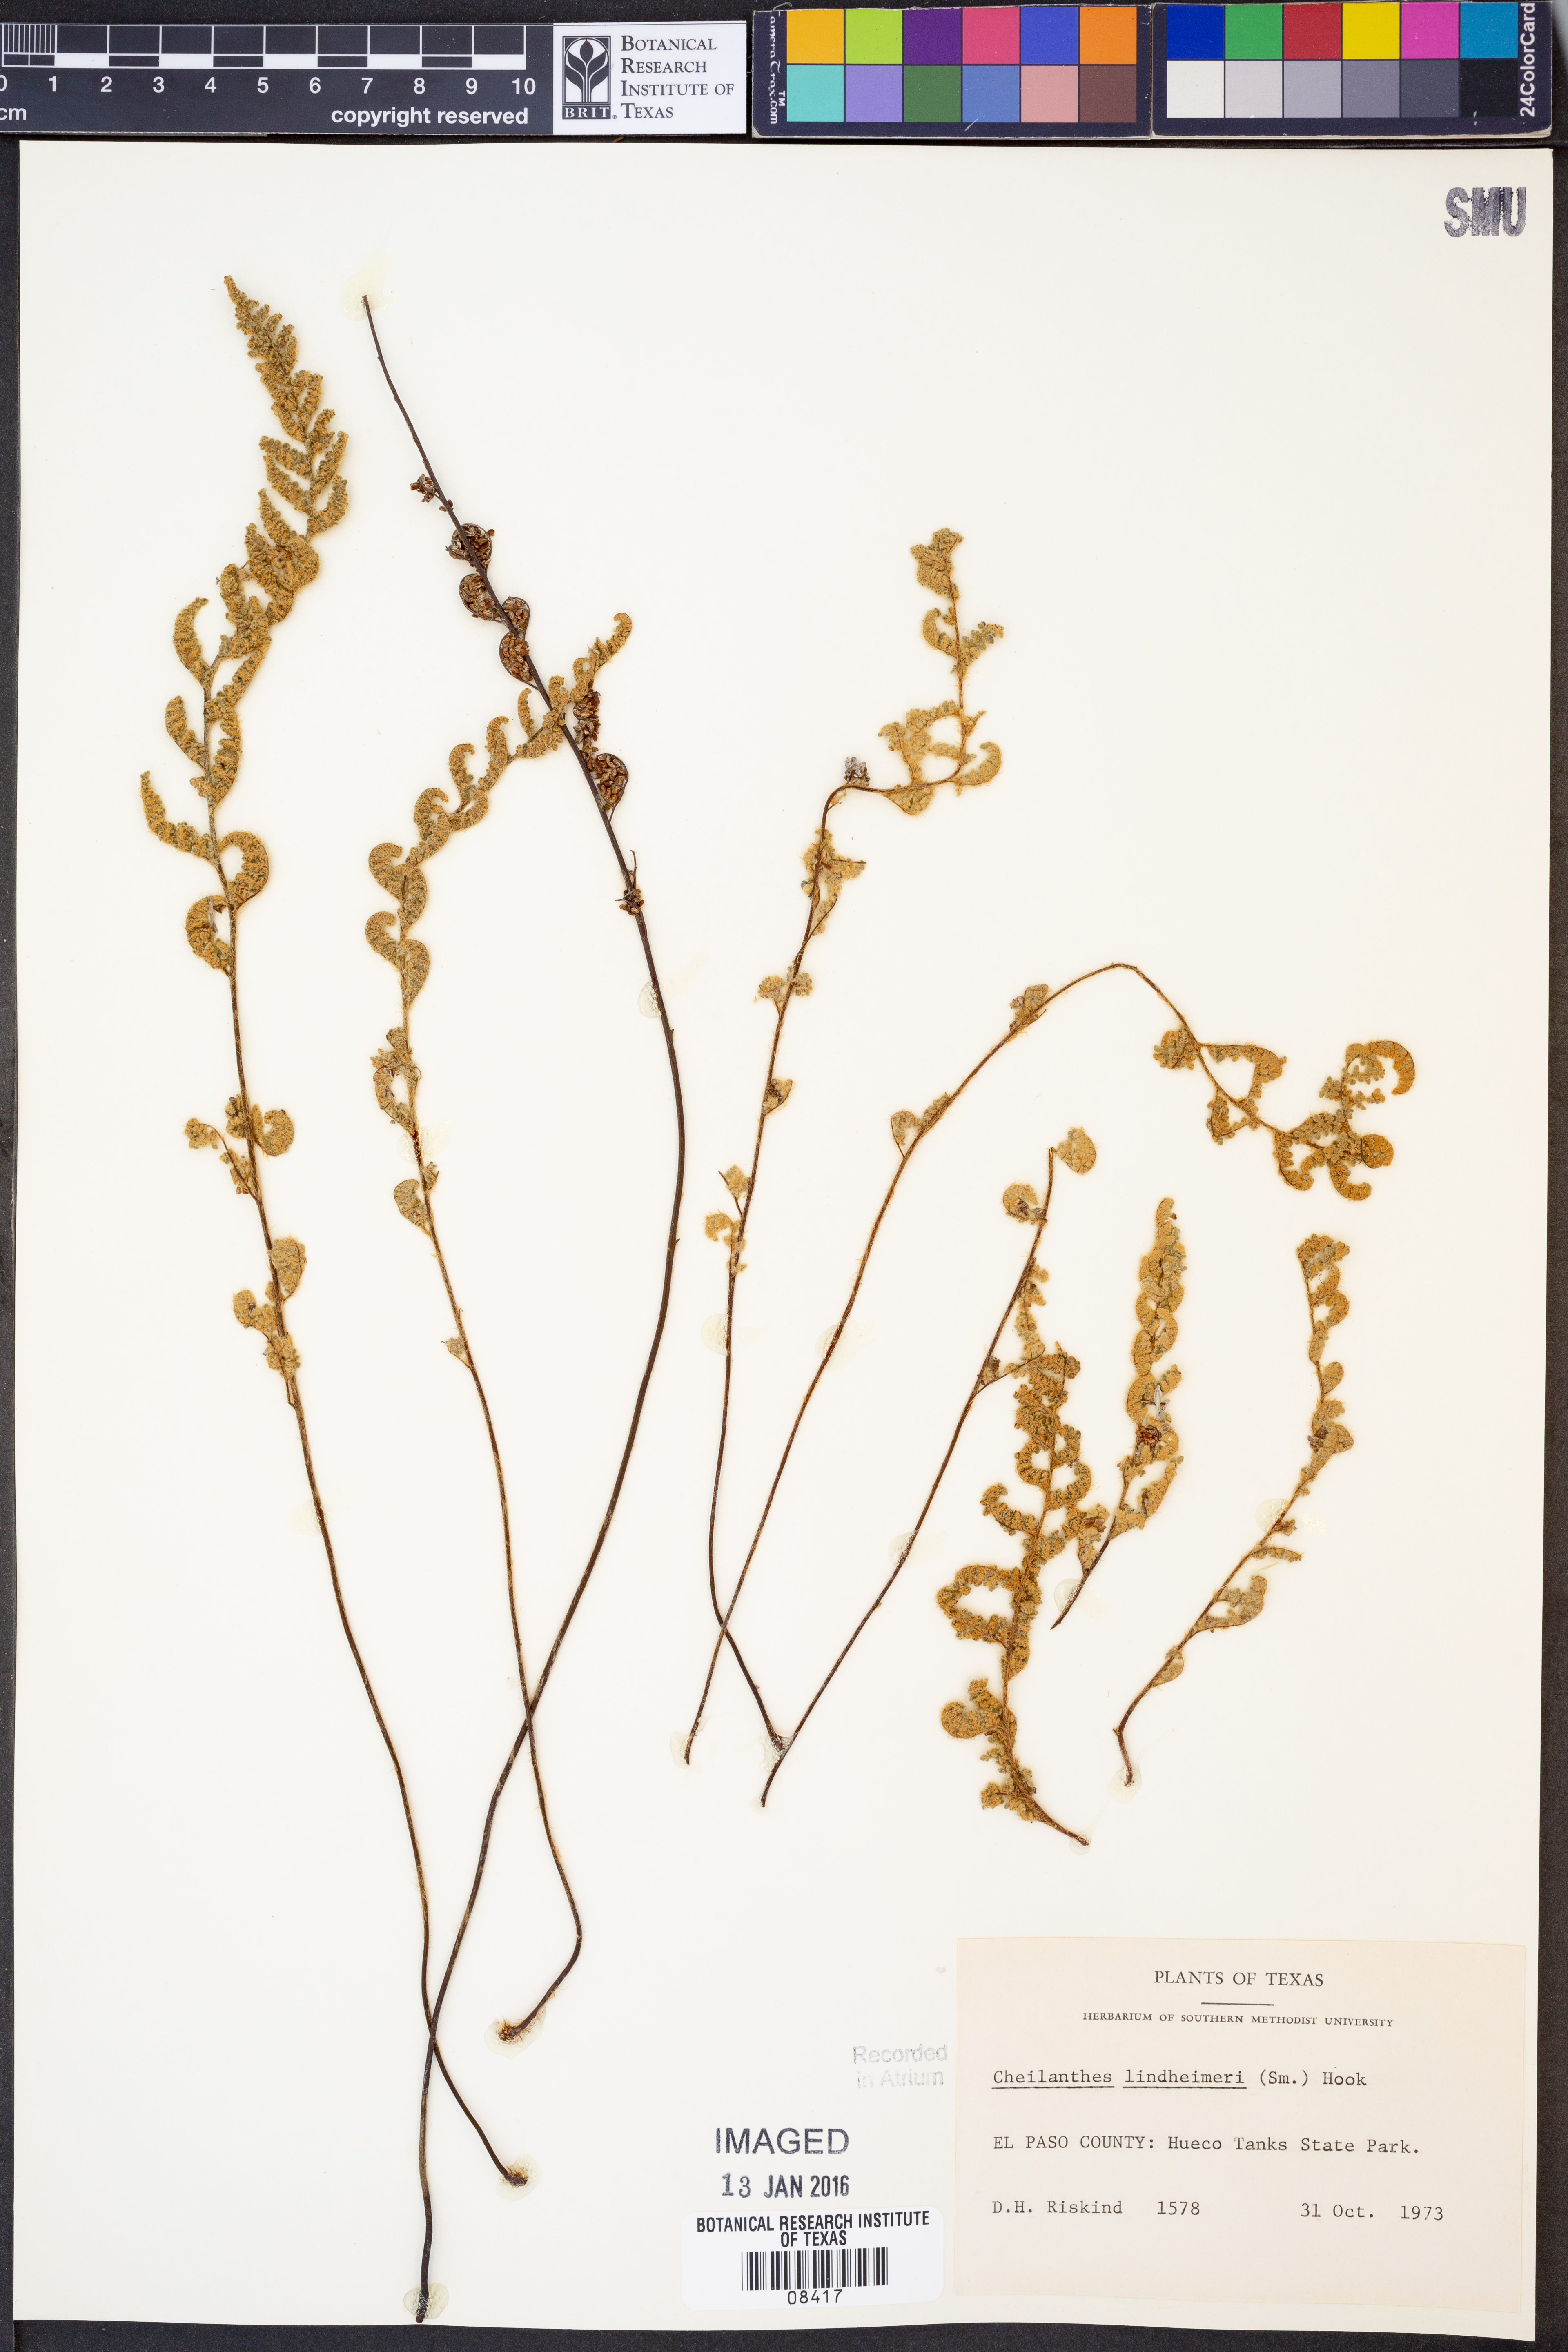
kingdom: Plantae
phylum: Tracheophyta
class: Polypodiopsida
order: Polypodiales
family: Pteridaceae
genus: Myriopteris
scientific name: Myriopteris lindheimeri
